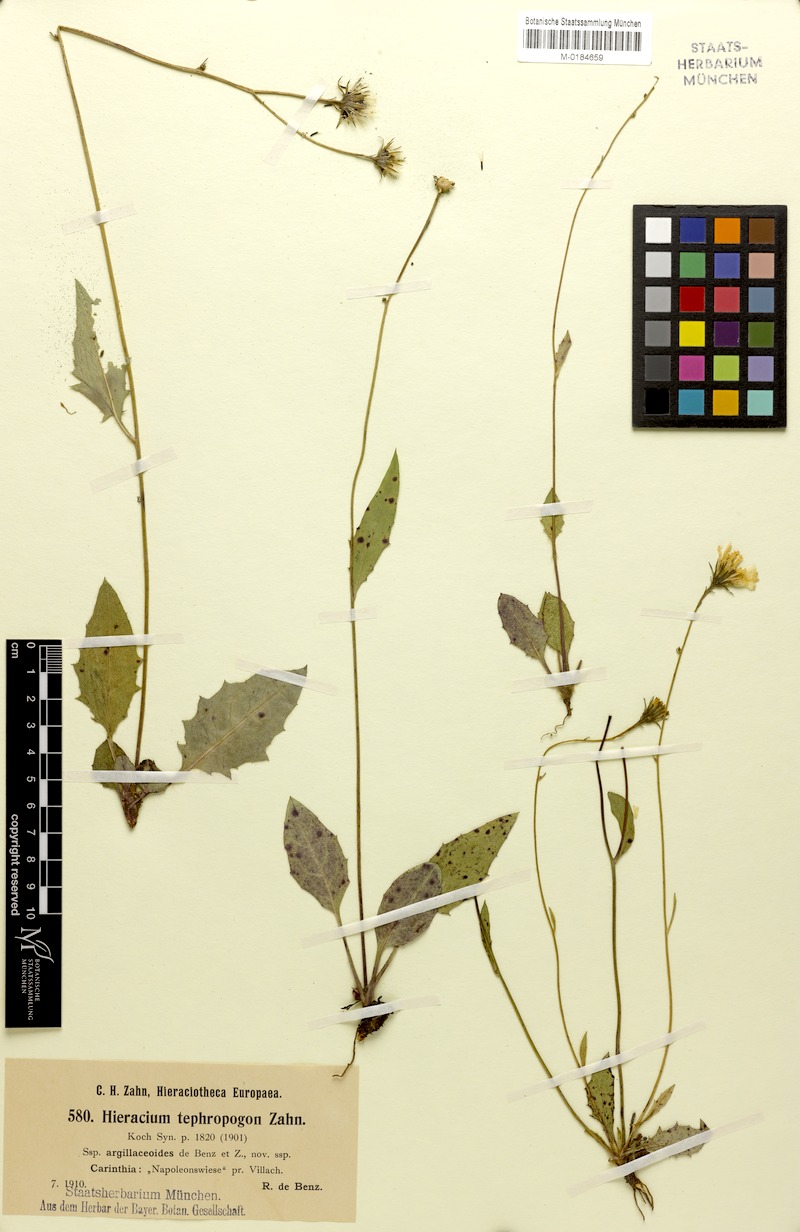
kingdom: Plantae
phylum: Tracheophyta
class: Magnoliopsida
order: Asterales
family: Asteraceae
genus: Hieracium
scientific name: Hieracium tephropogon
